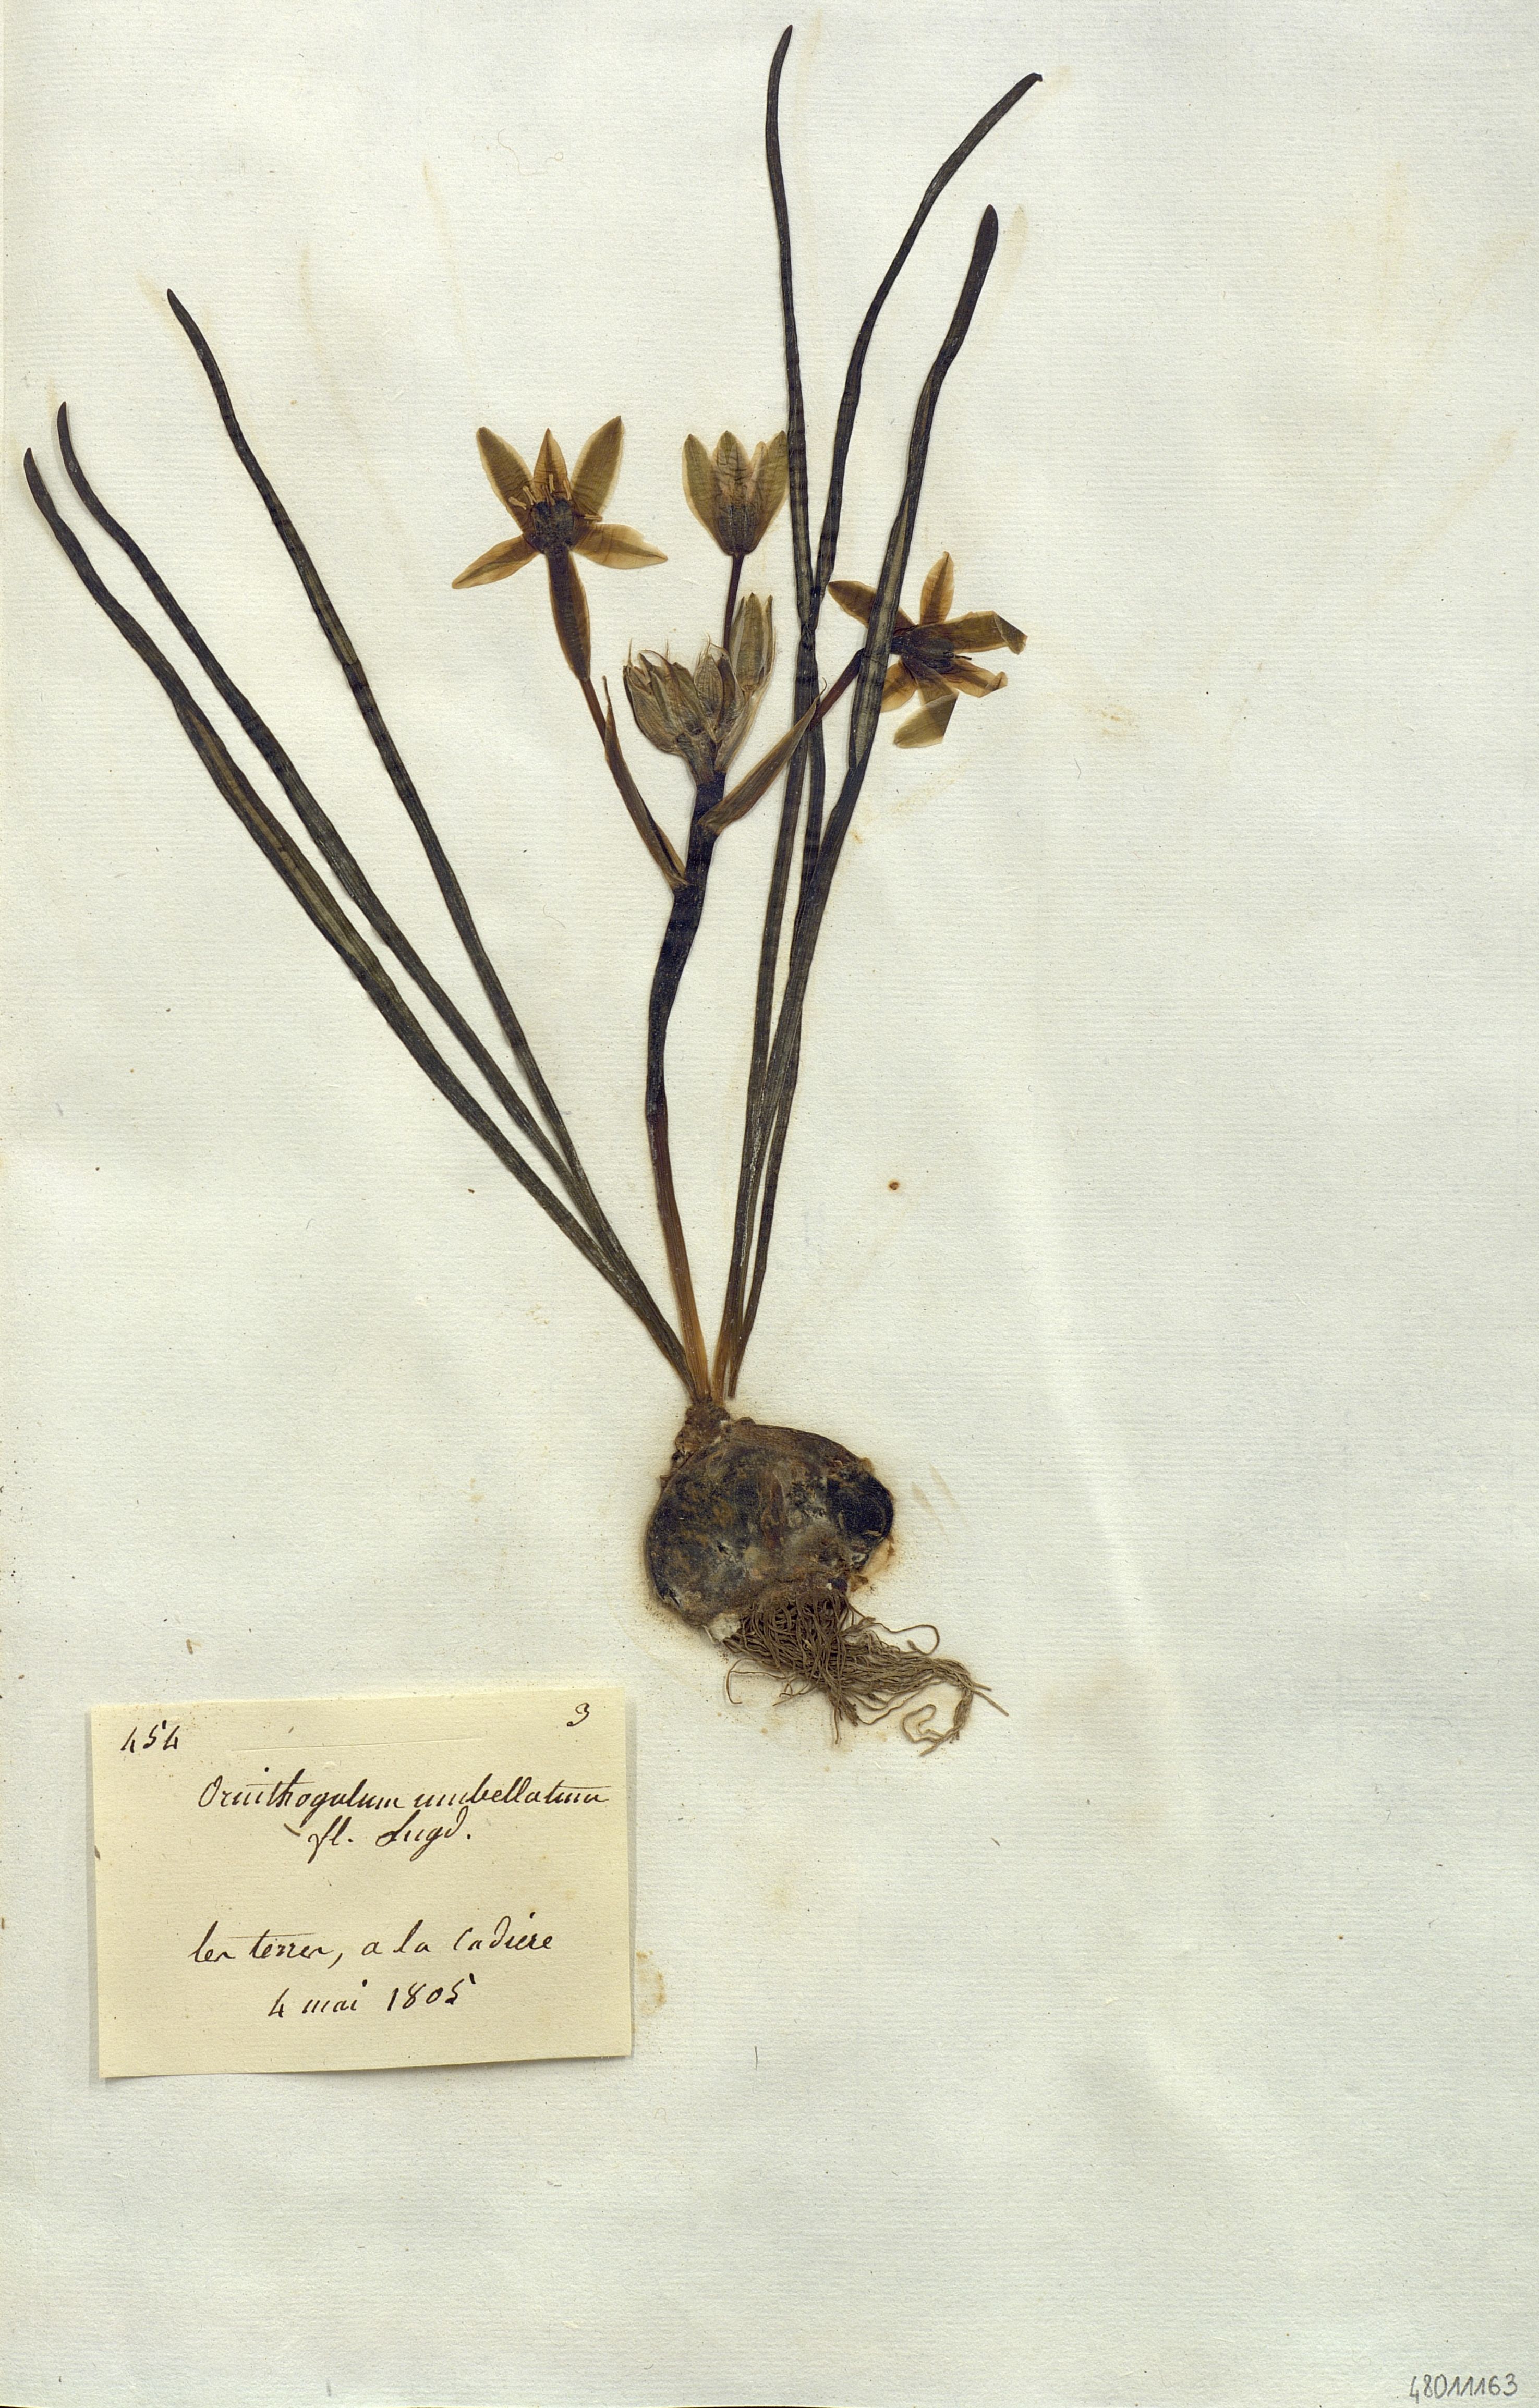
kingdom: Plantae
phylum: Tracheophyta
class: Liliopsida
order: Liliales
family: Liliaceae
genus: Ornithogalum
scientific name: Ornithogalum
